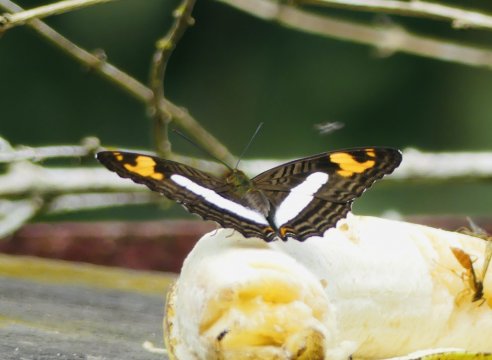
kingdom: Animalia
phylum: Arthropoda
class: Insecta
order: Lepidoptera
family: Nymphalidae
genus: Limenitis
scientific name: Limenitis barnesia
